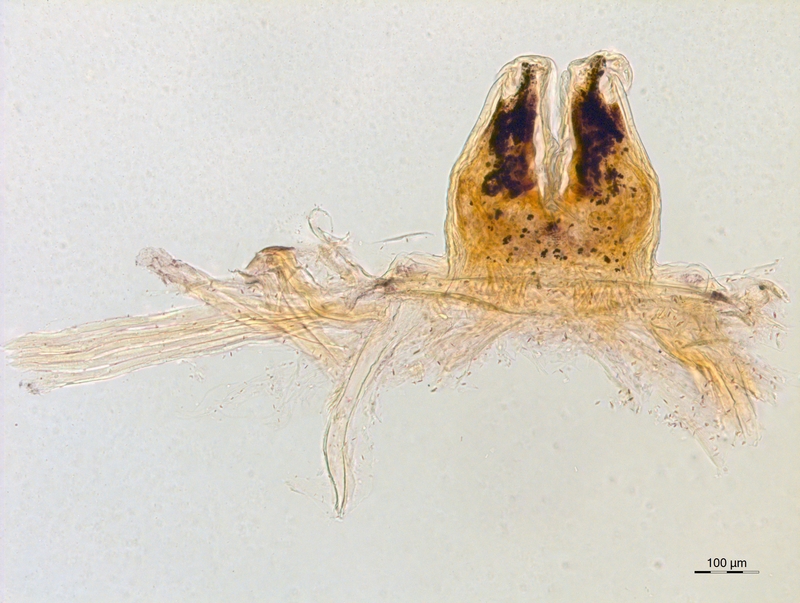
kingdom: Animalia
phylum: Arthropoda
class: Diplopoda
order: Chordeumatida
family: Craspedosomatidae
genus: Atractosoma
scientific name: Atractosoma
